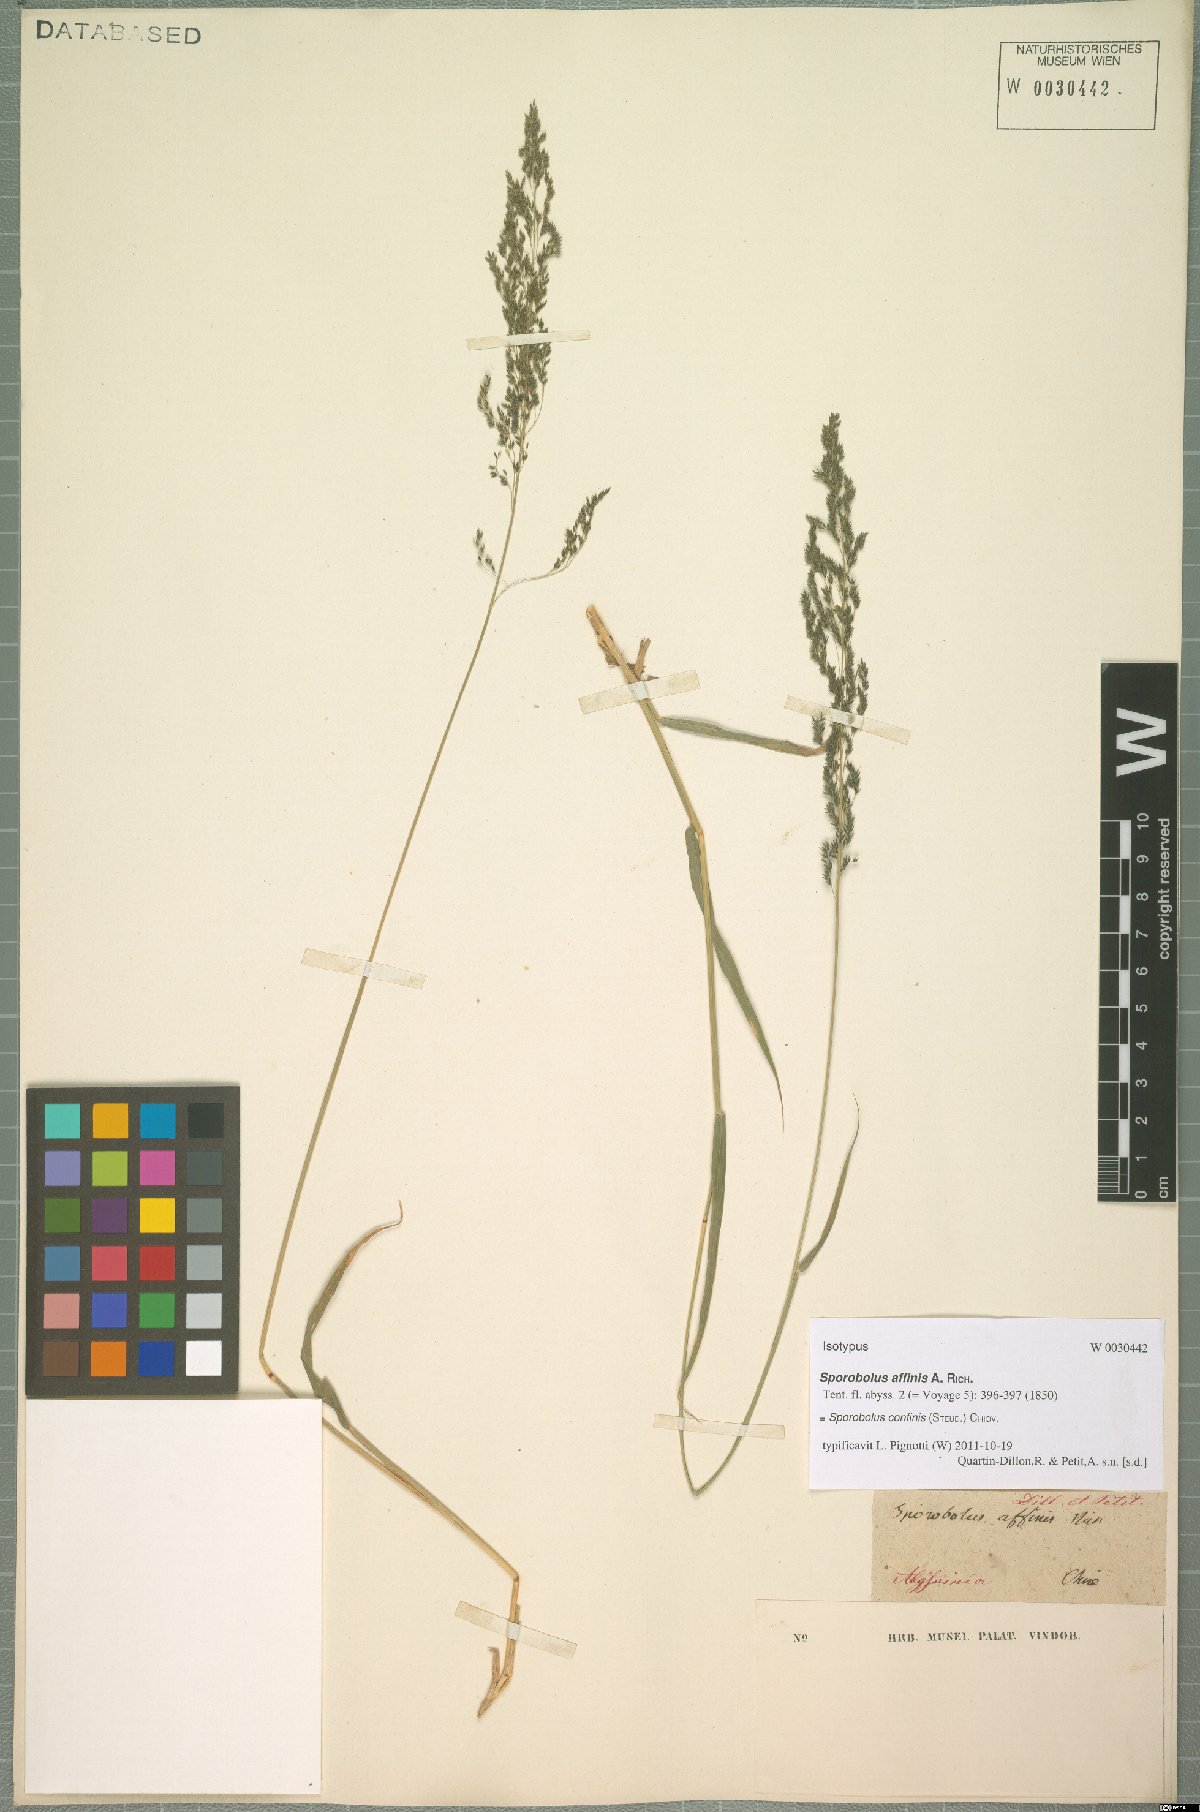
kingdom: Plantae
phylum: Tracheophyta
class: Liliopsida
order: Poales
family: Poaceae
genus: Sporobolus
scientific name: Sporobolus confinis
